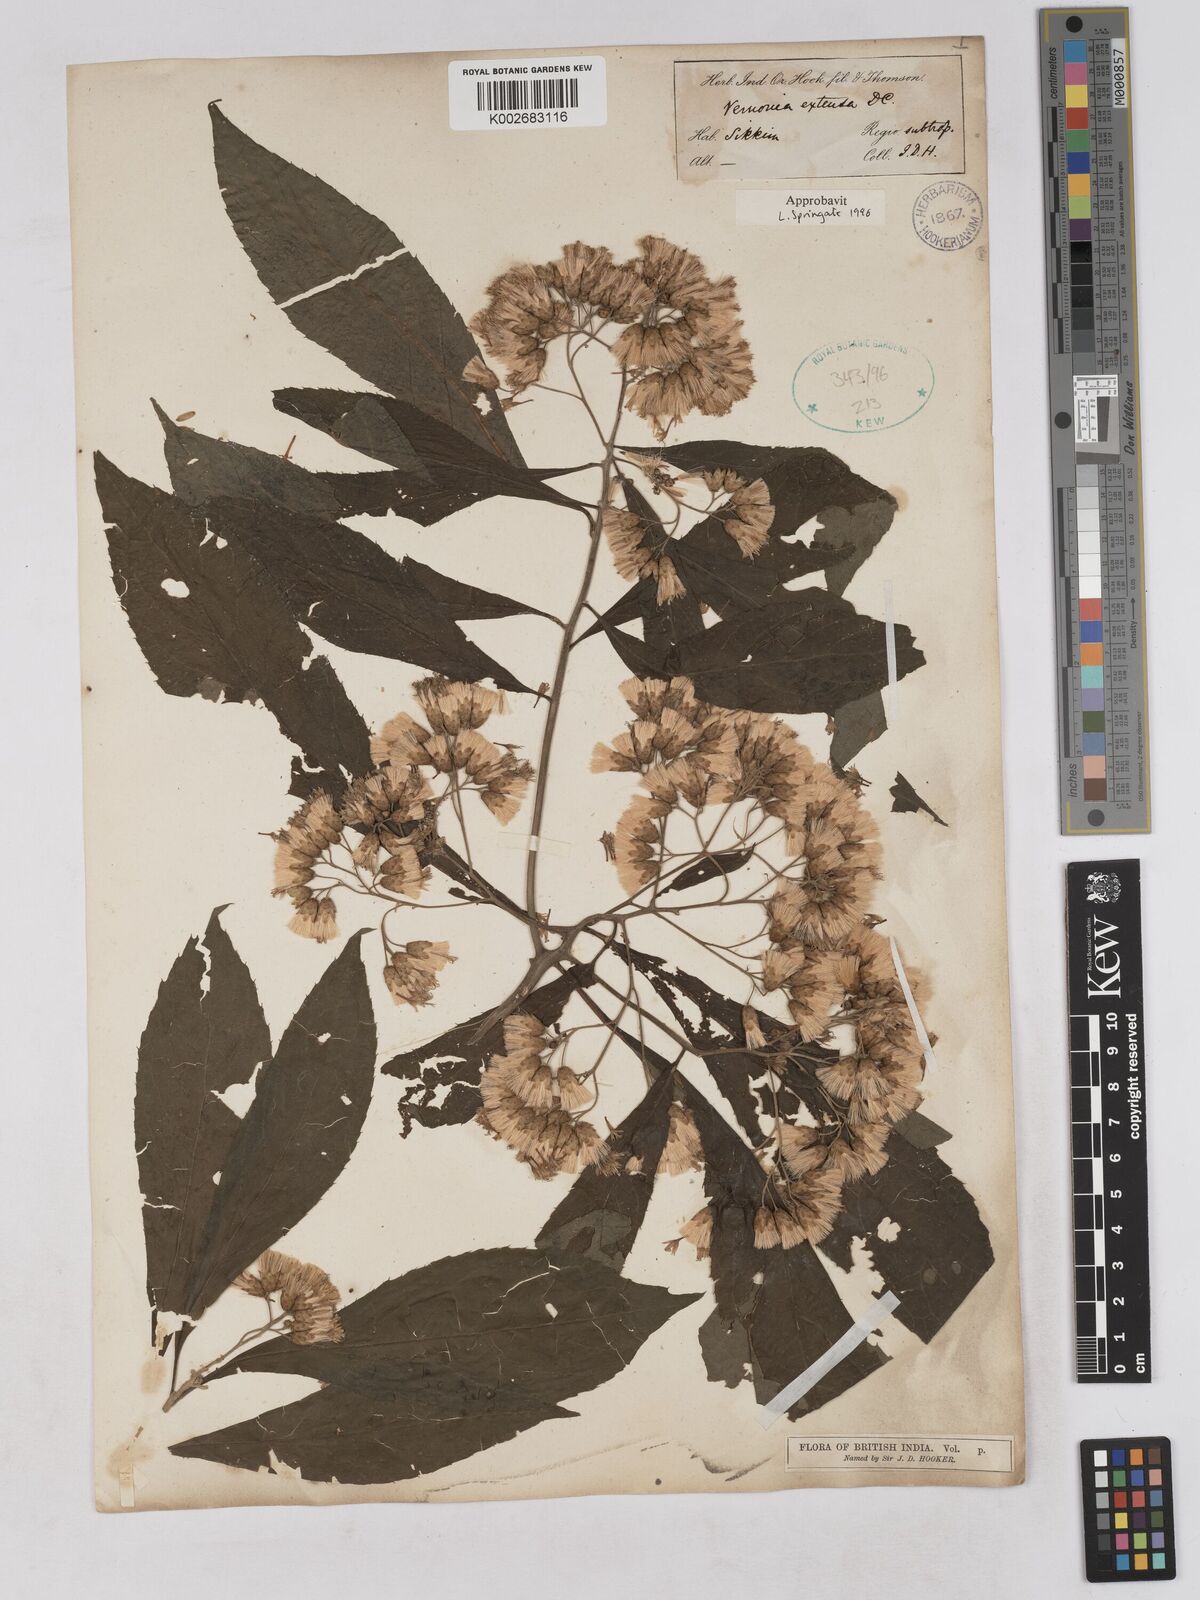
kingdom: Plantae
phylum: Tracheophyta
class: Magnoliopsida
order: Asterales
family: Asteraceae
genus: Gymnanthemum
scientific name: Gymnanthemum extensum
